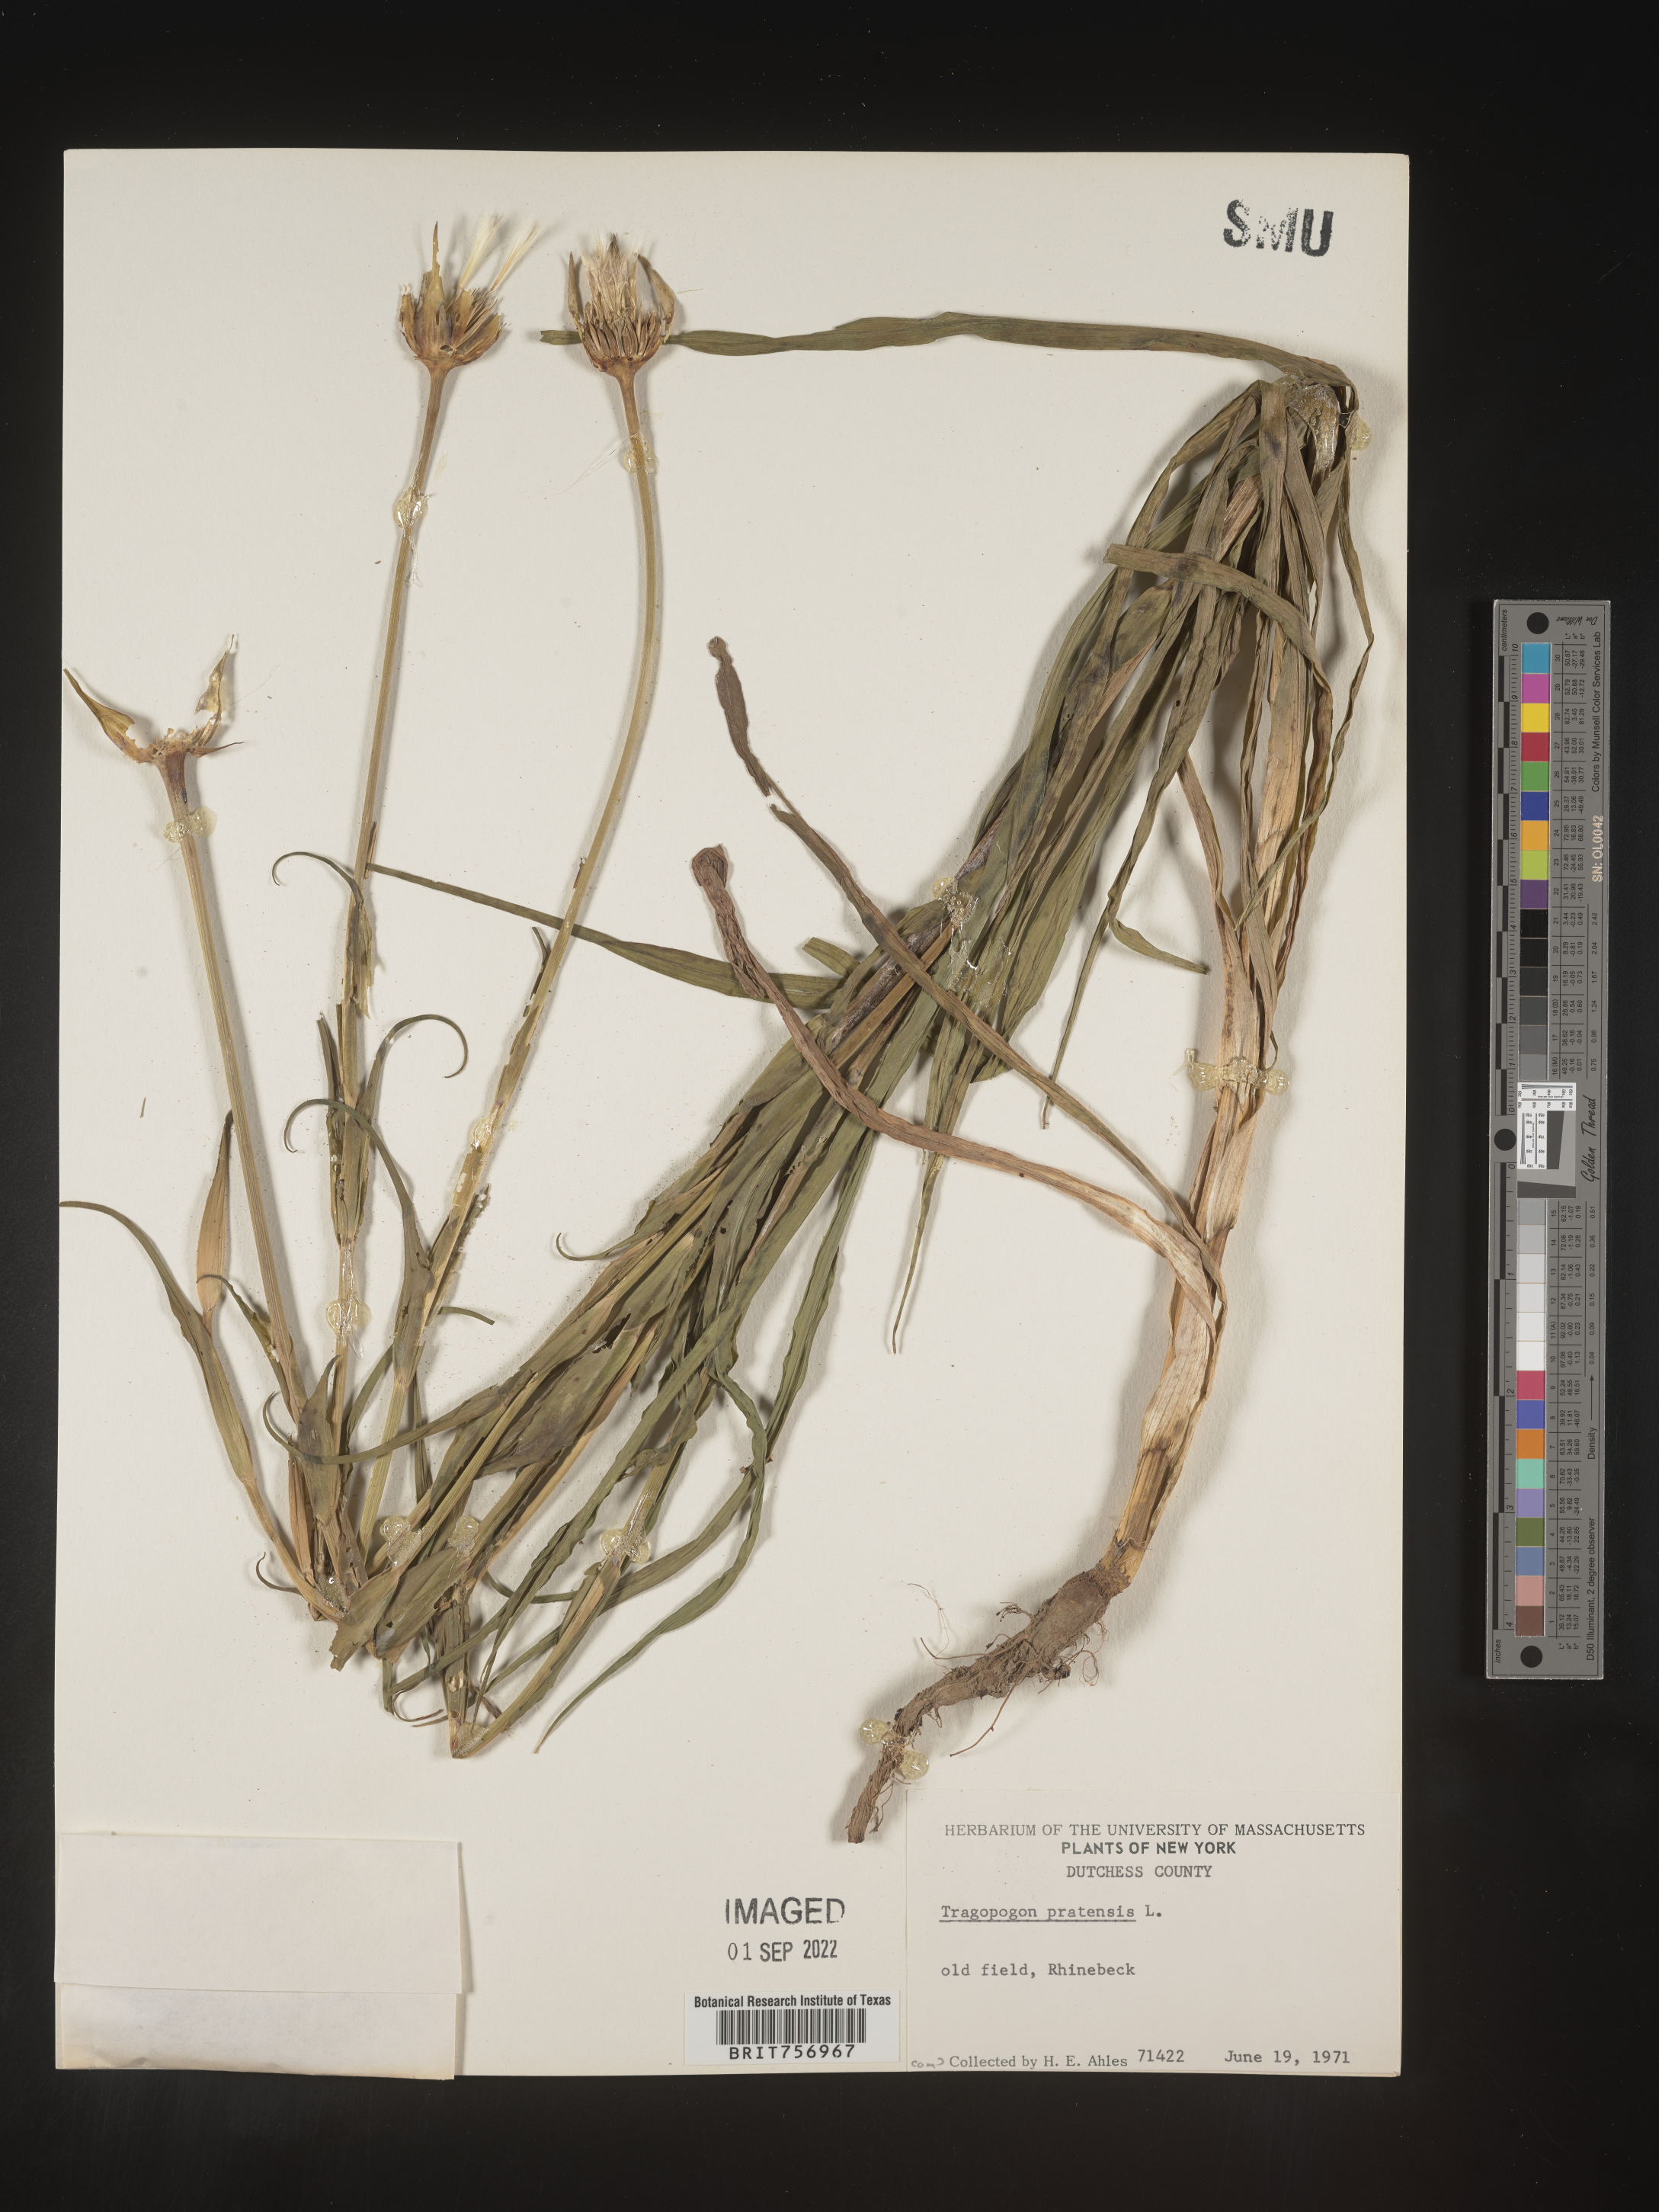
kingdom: Plantae
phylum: Tracheophyta
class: Magnoliopsida
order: Asterales
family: Asteraceae
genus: Tragopogon
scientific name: Tragopogon pratensis
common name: Goat's-beard
